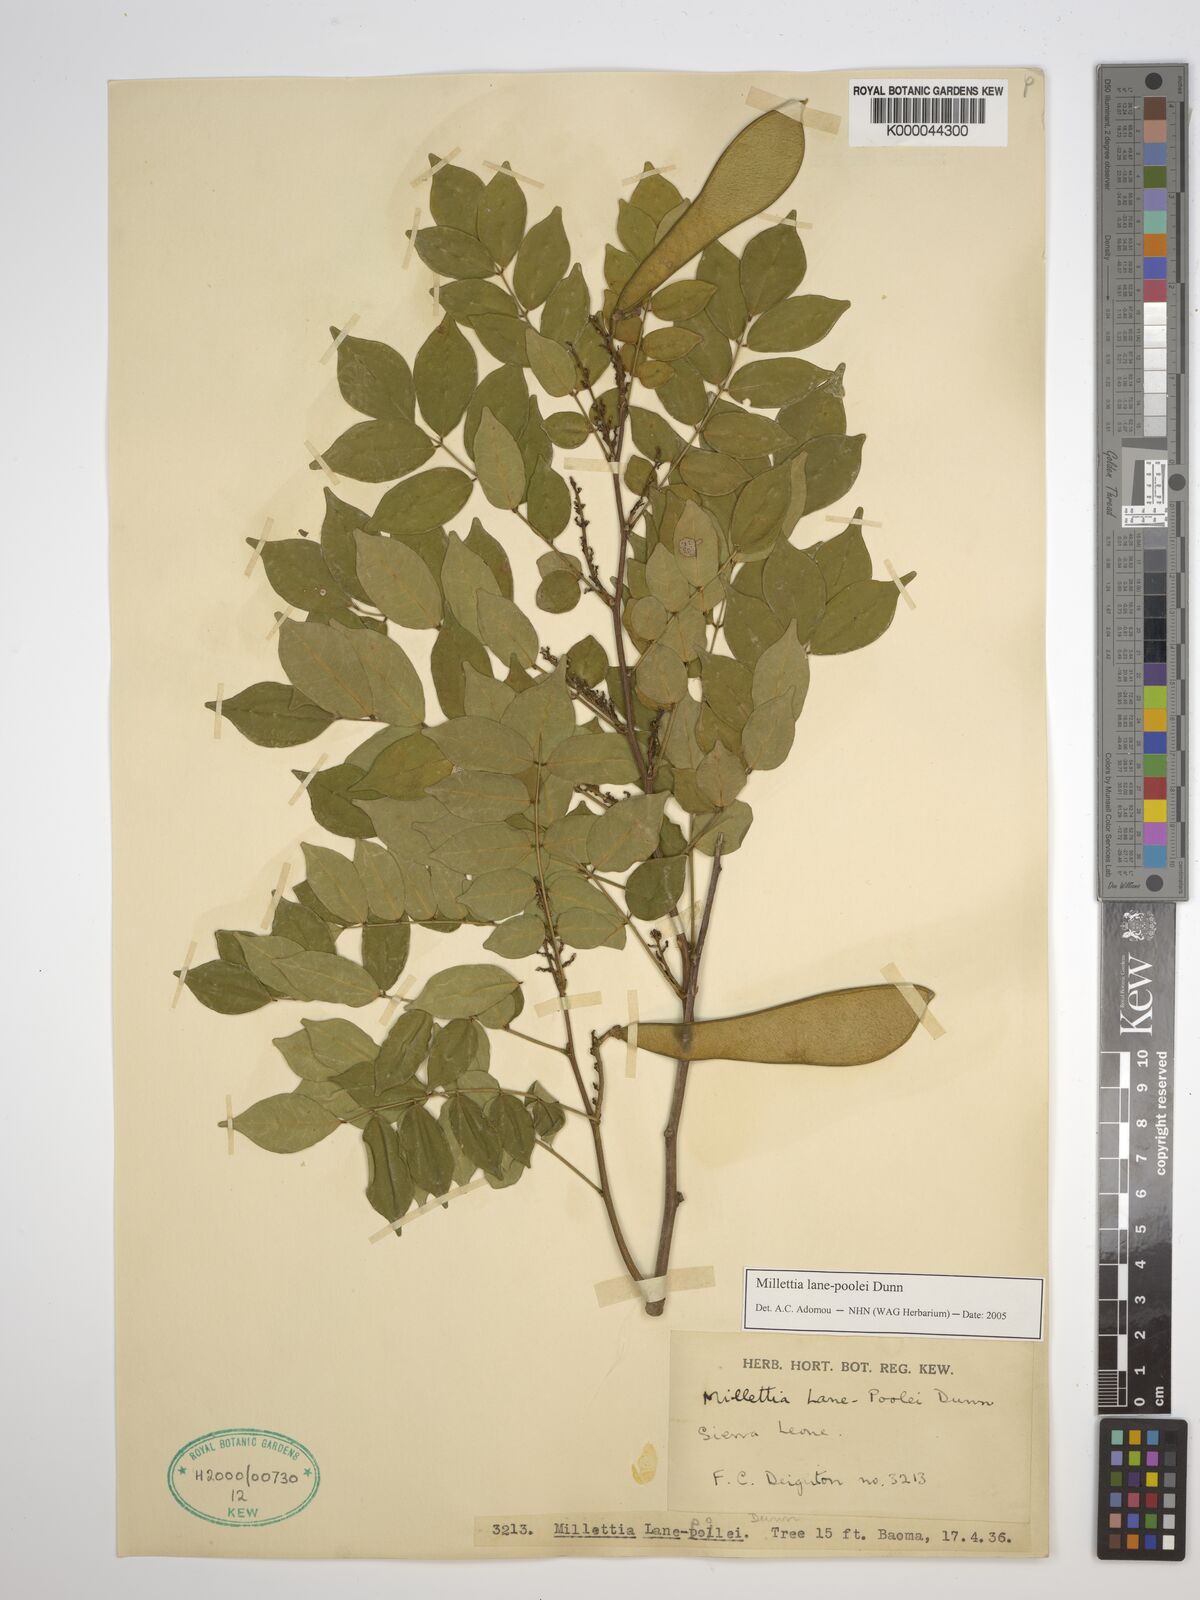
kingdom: Plantae
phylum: Tracheophyta
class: Magnoliopsida
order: Fabales
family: Fabaceae
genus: Millettia
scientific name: Millettia lane-poolei
